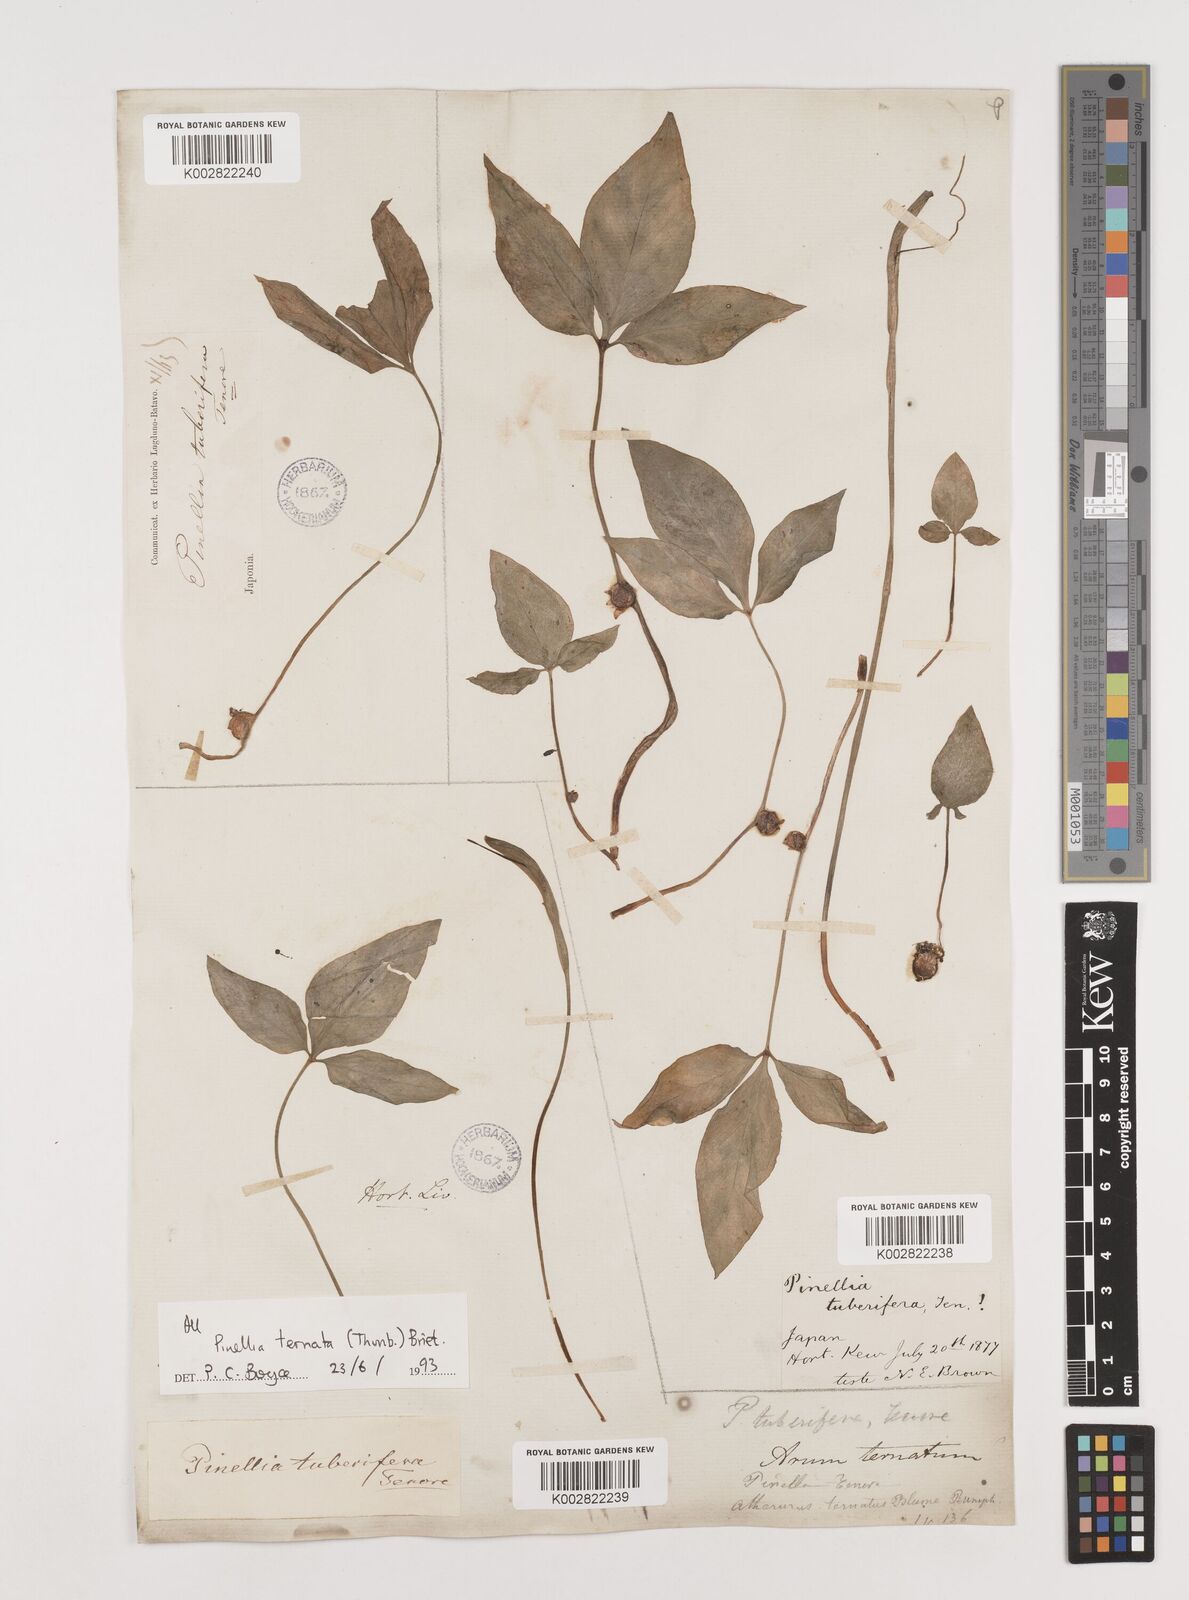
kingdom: Plantae
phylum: Tracheophyta
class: Liliopsida
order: Alismatales
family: Araceae
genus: Pinellia
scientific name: Pinellia ternata
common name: Pinellia
